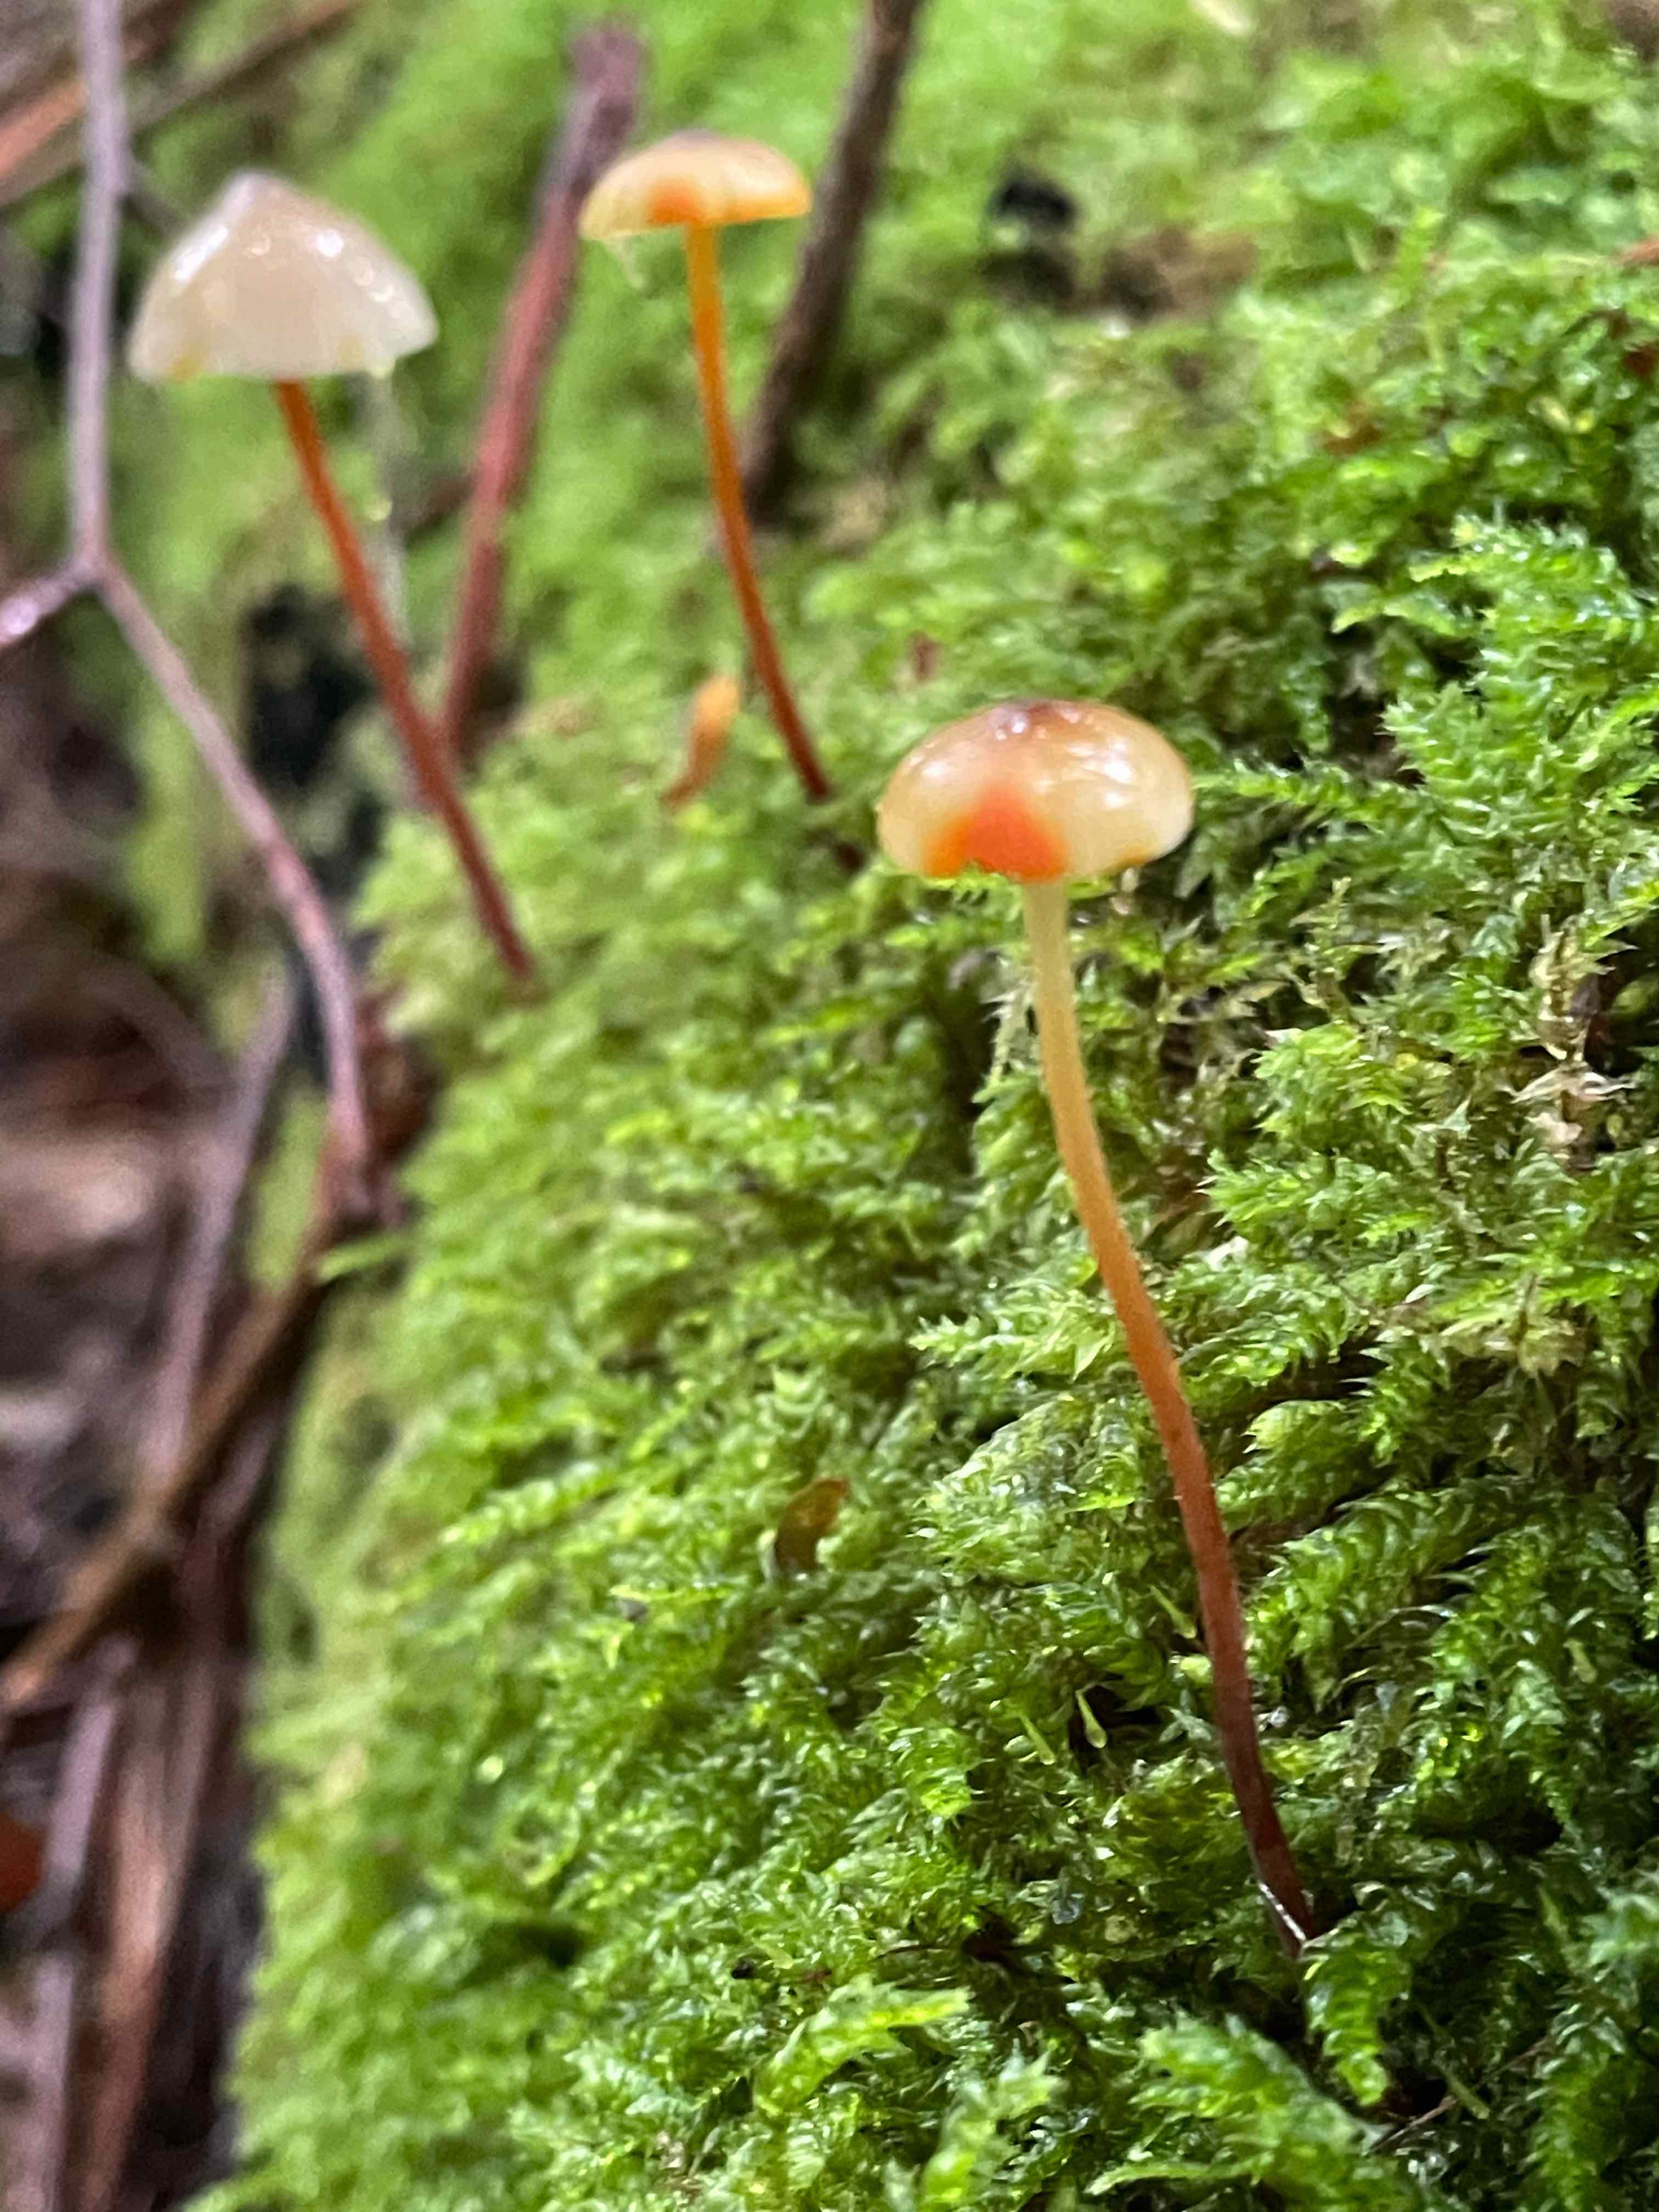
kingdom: Fungi
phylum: Basidiomycota
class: Agaricomycetes
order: Agaricales
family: Mycenaceae
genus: Mycena
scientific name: Mycena crocata
